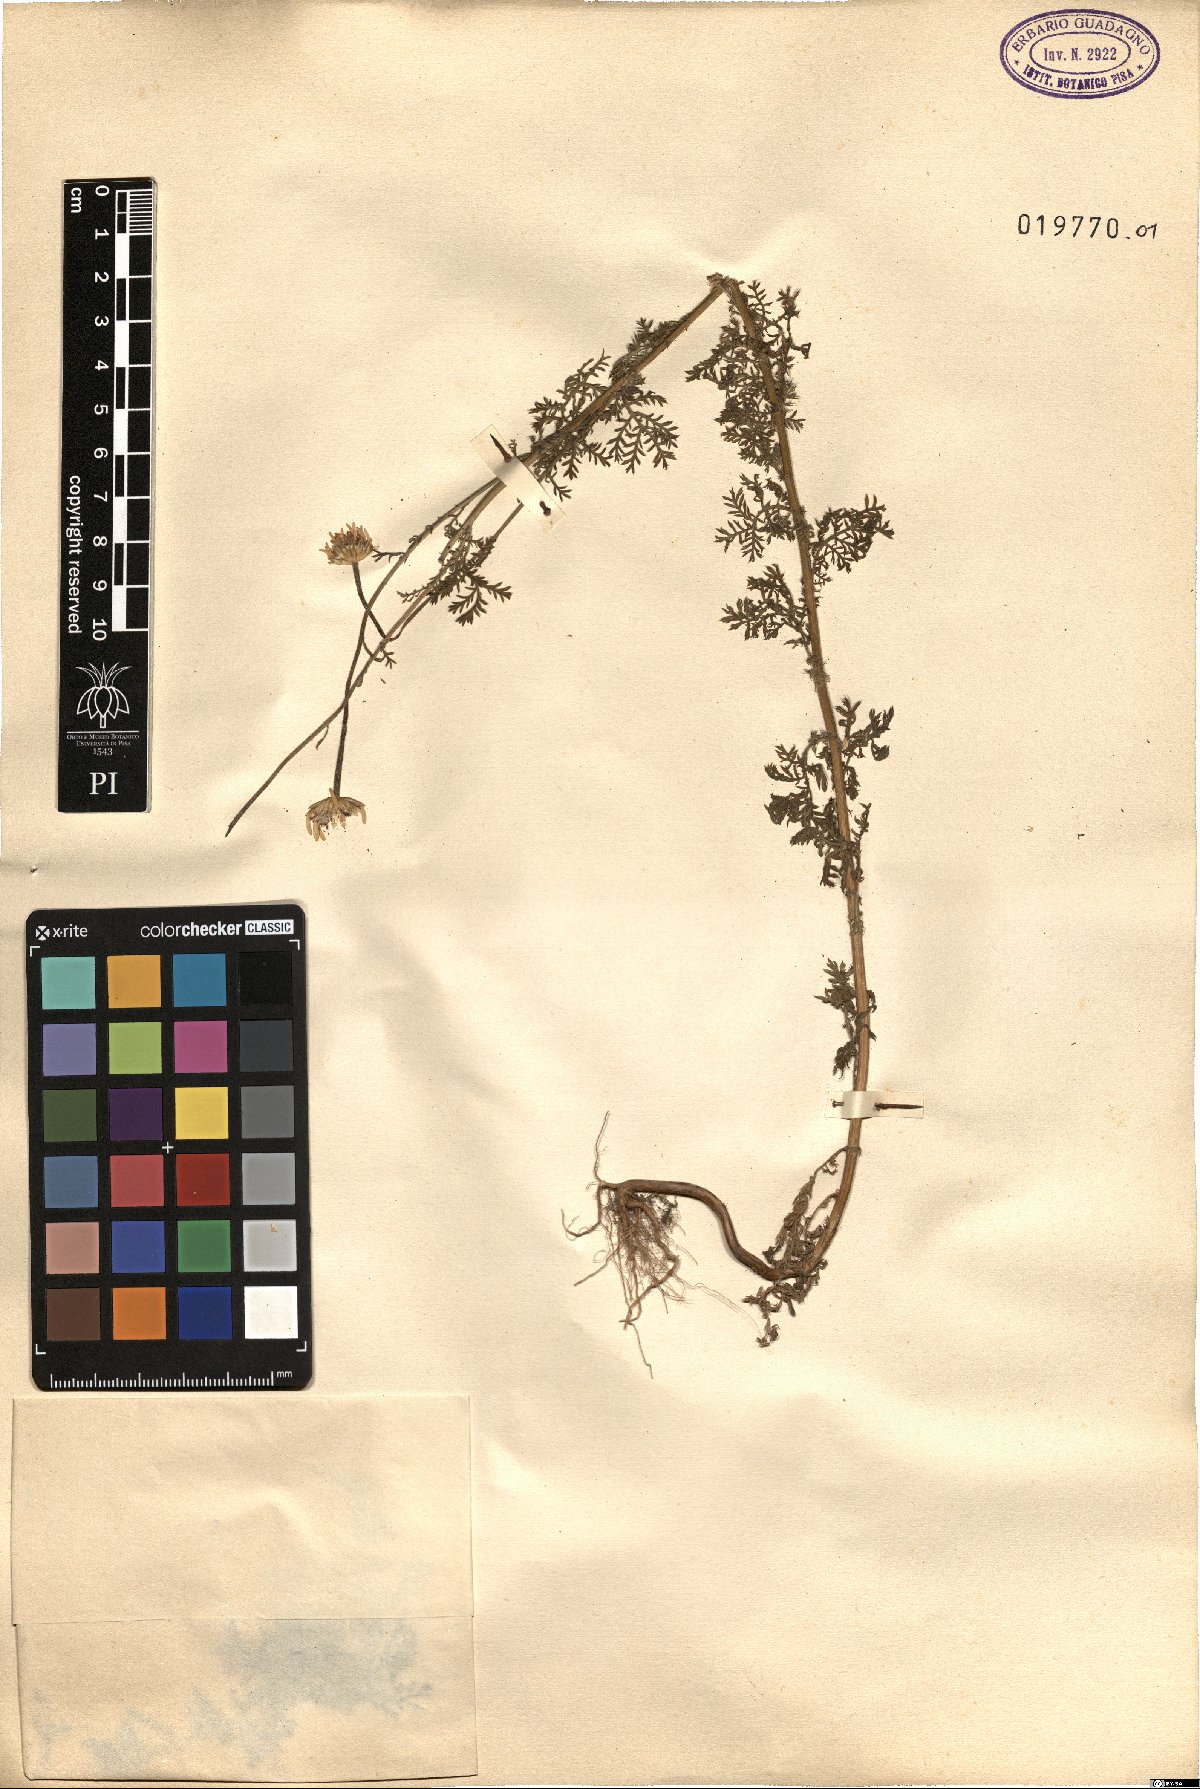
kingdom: Plantae
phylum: Tracheophyta
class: Magnoliopsida
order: Asterales
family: Asteraceae
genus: Cota
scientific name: Cota segetalis
